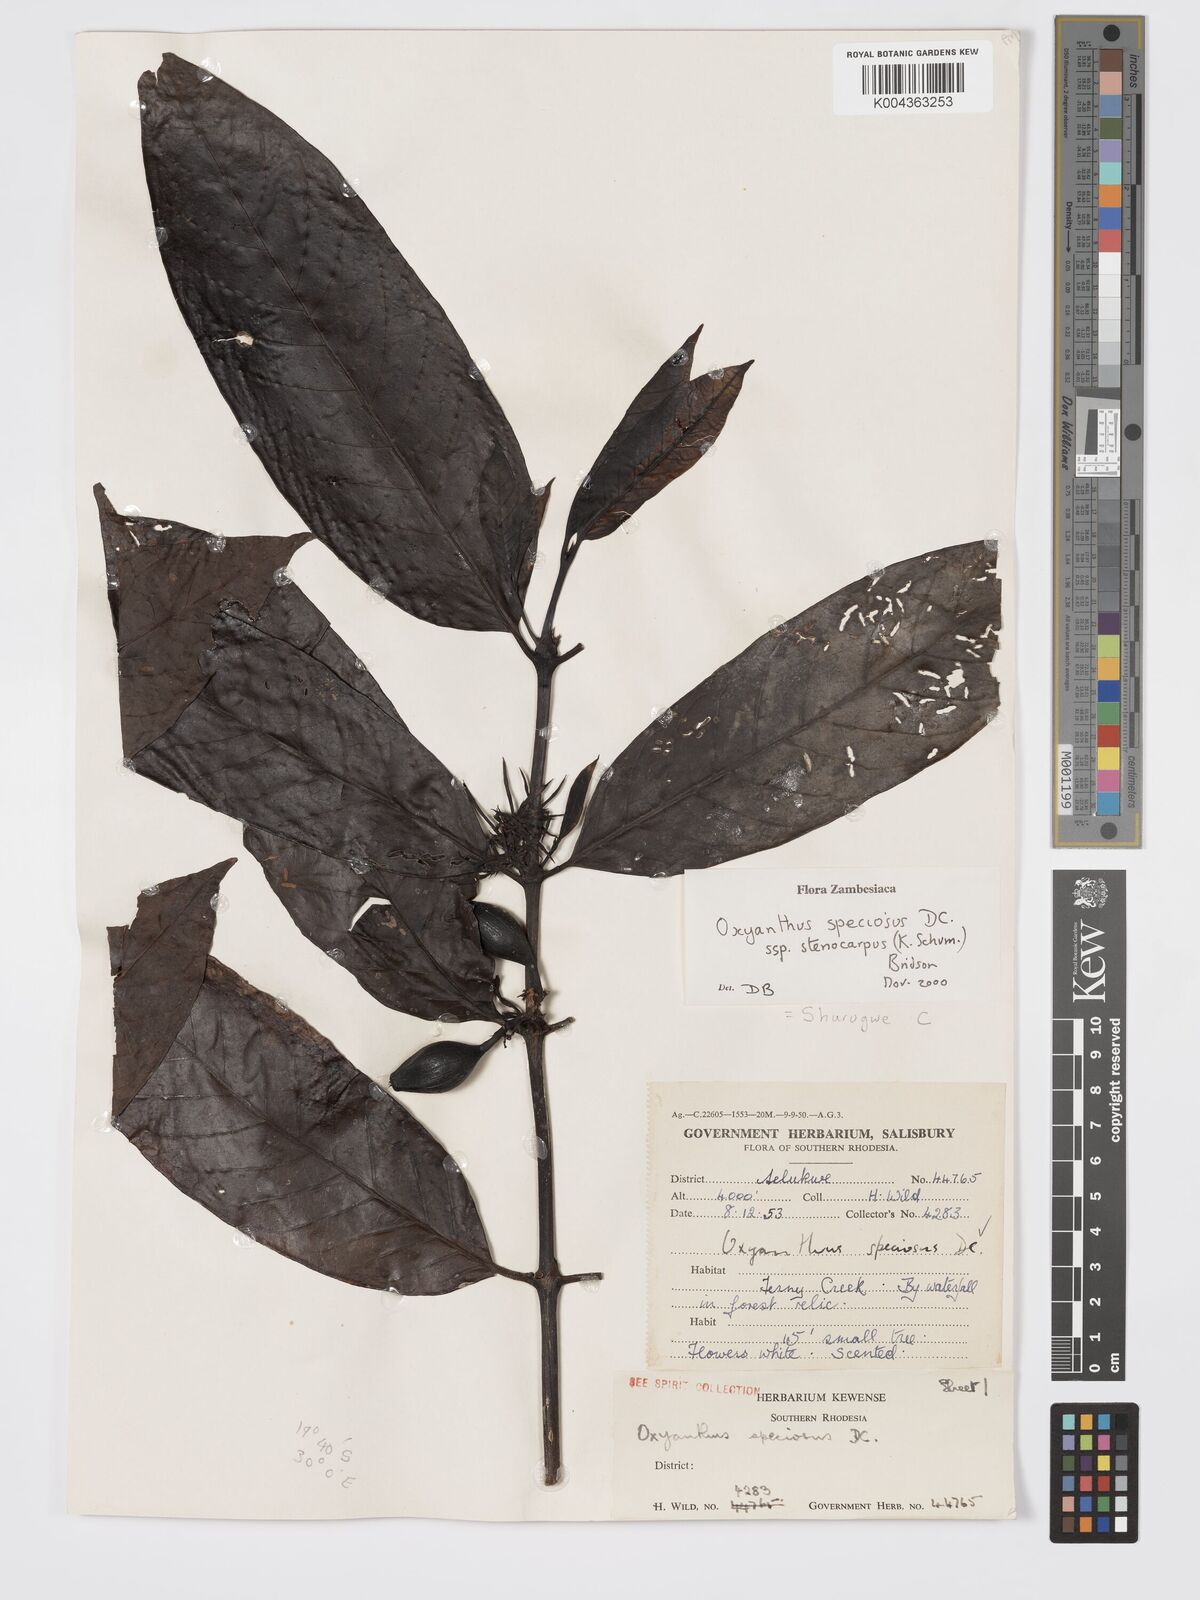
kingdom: Plantae
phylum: Tracheophyta
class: Magnoliopsida
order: Gentianales
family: Rubiaceae
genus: Oxyanthus
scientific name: Oxyanthus speciosus
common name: Whipstick loquat
